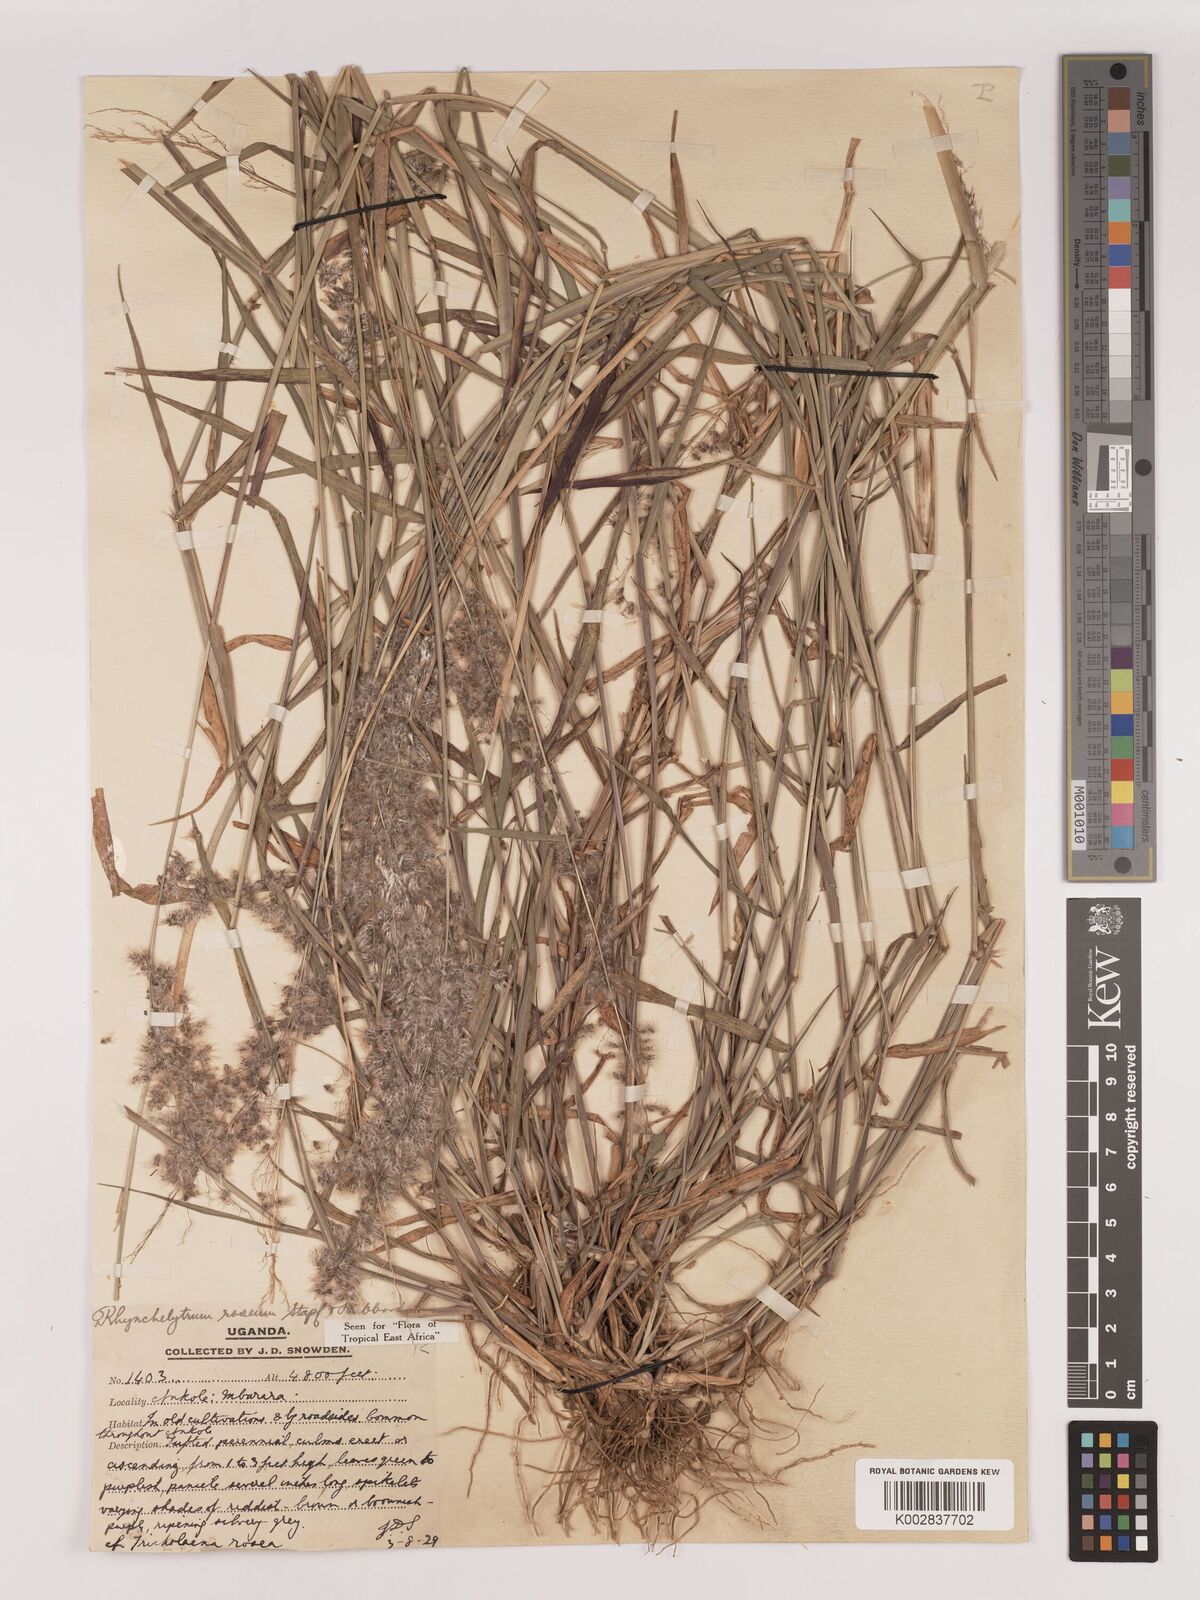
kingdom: Plantae
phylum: Tracheophyta
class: Liliopsida
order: Poales
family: Poaceae
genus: Melinis
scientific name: Melinis repens
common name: Rose natal grass
